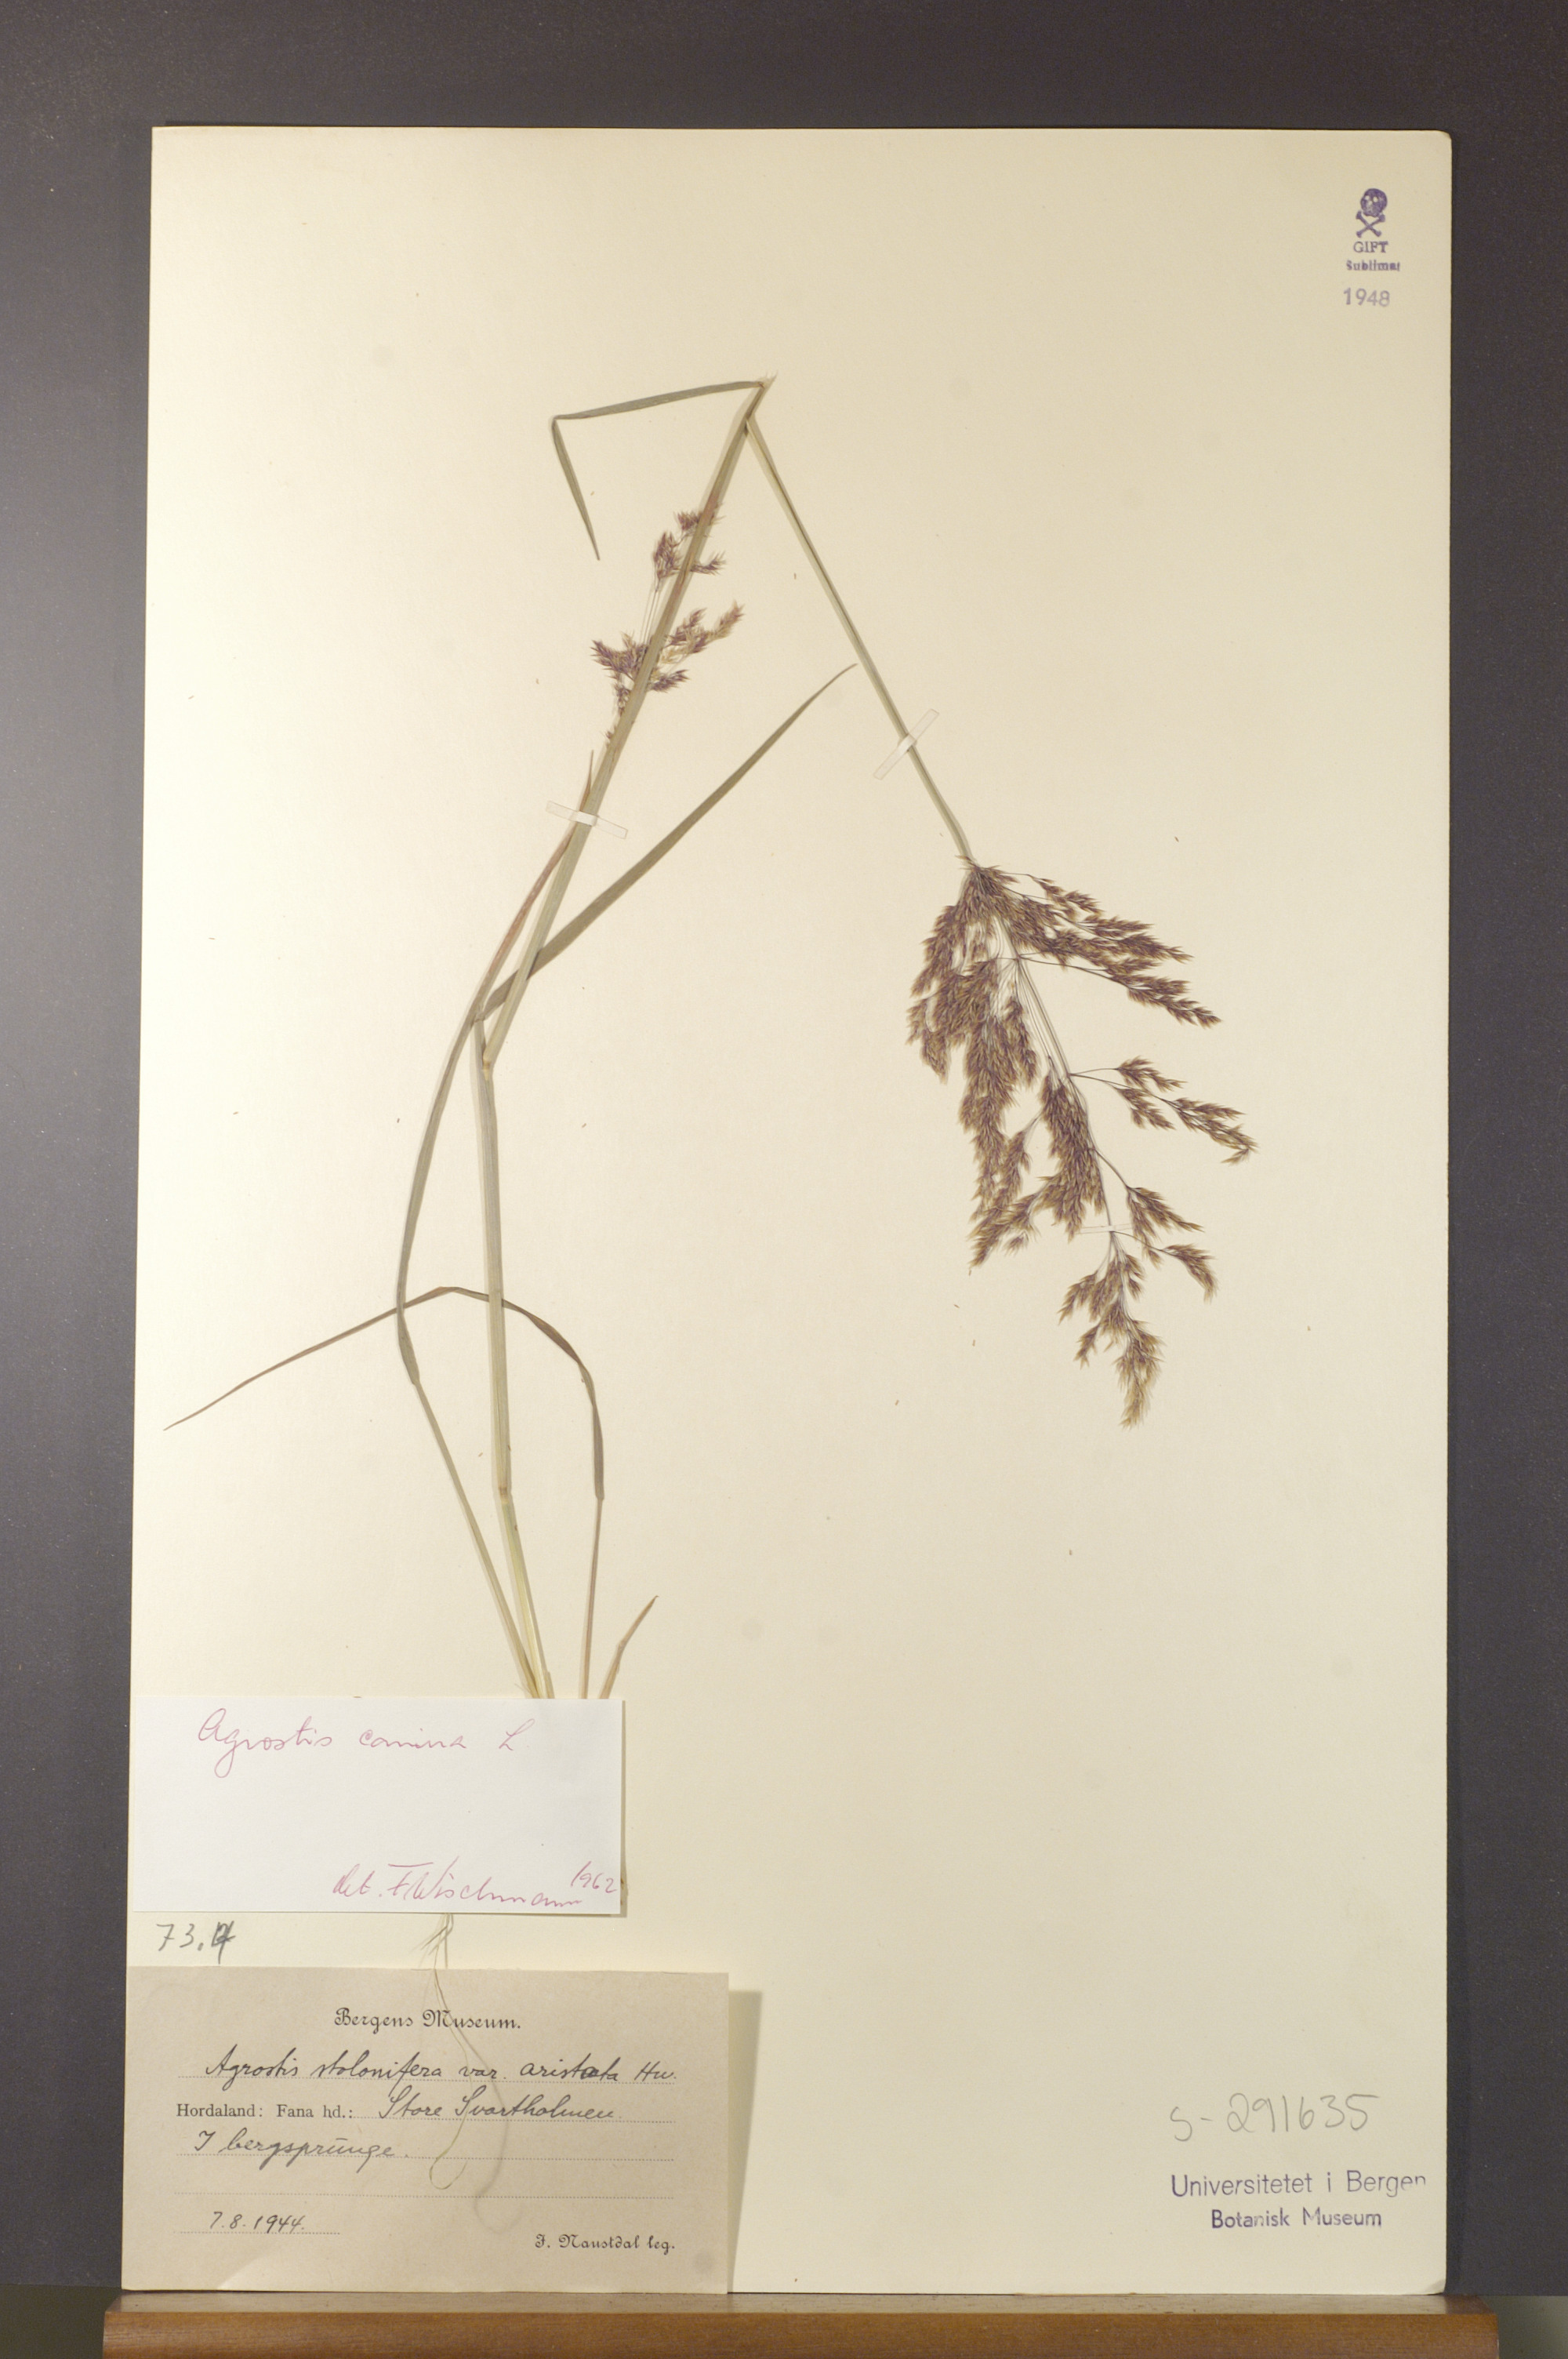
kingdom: Plantae
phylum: Tracheophyta
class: Liliopsida
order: Poales
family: Poaceae
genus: Agrostis
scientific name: Agrostis canina
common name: Velvet bent
